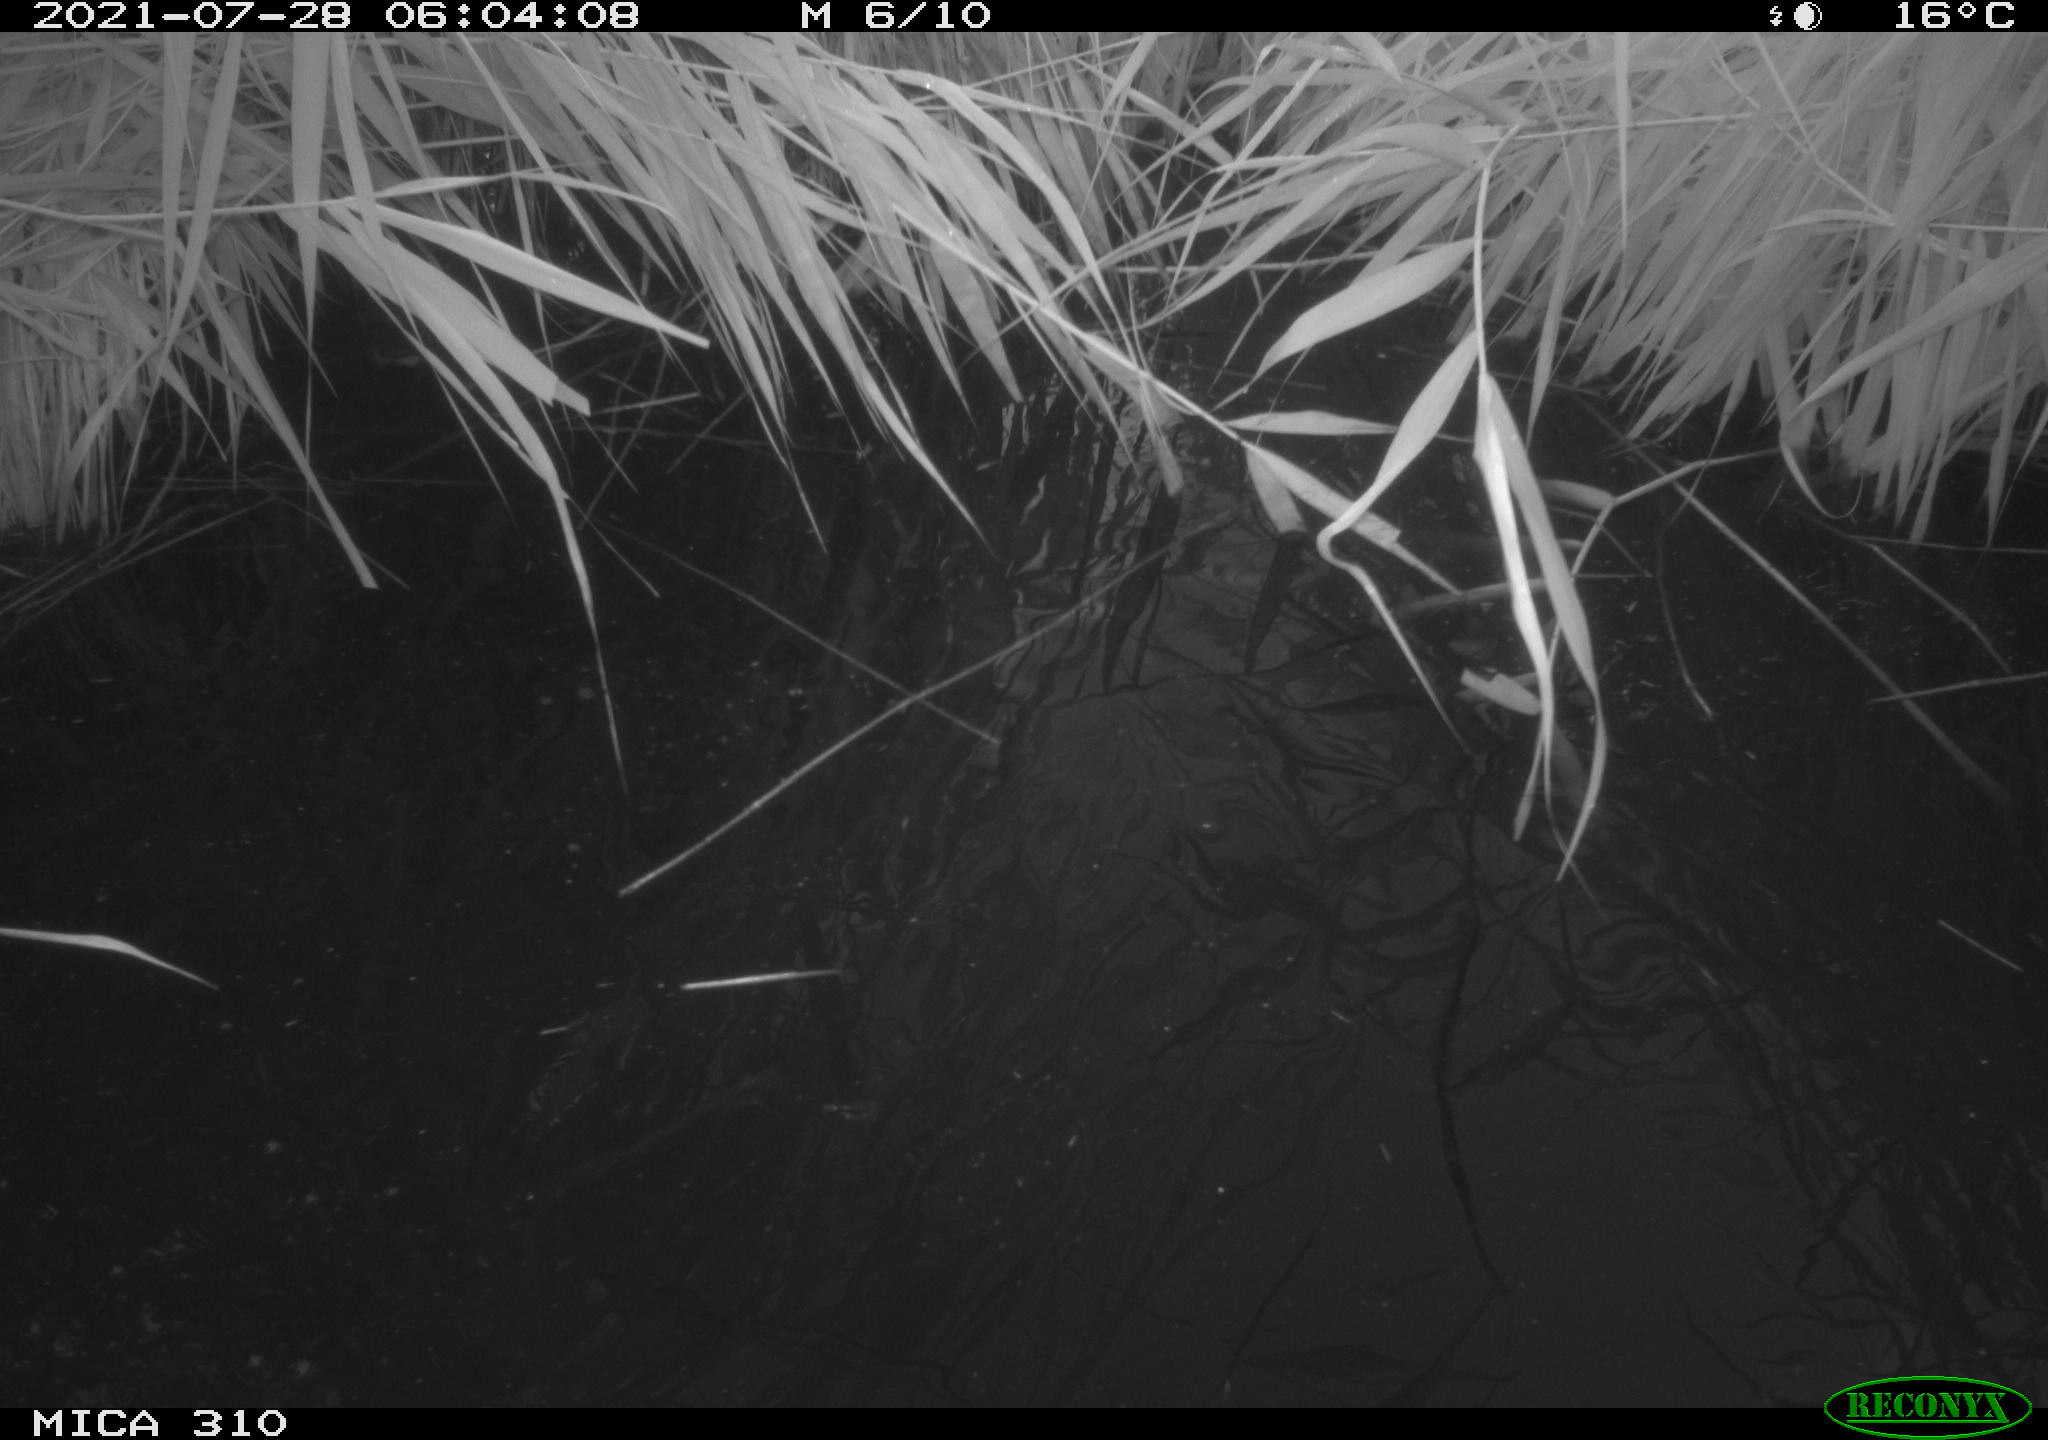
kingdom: Animalia
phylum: Chordata
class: Aves
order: Gruiformes
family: Rallidae
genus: Gallinula
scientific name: Gallinula chloropus
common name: Common moorhen
